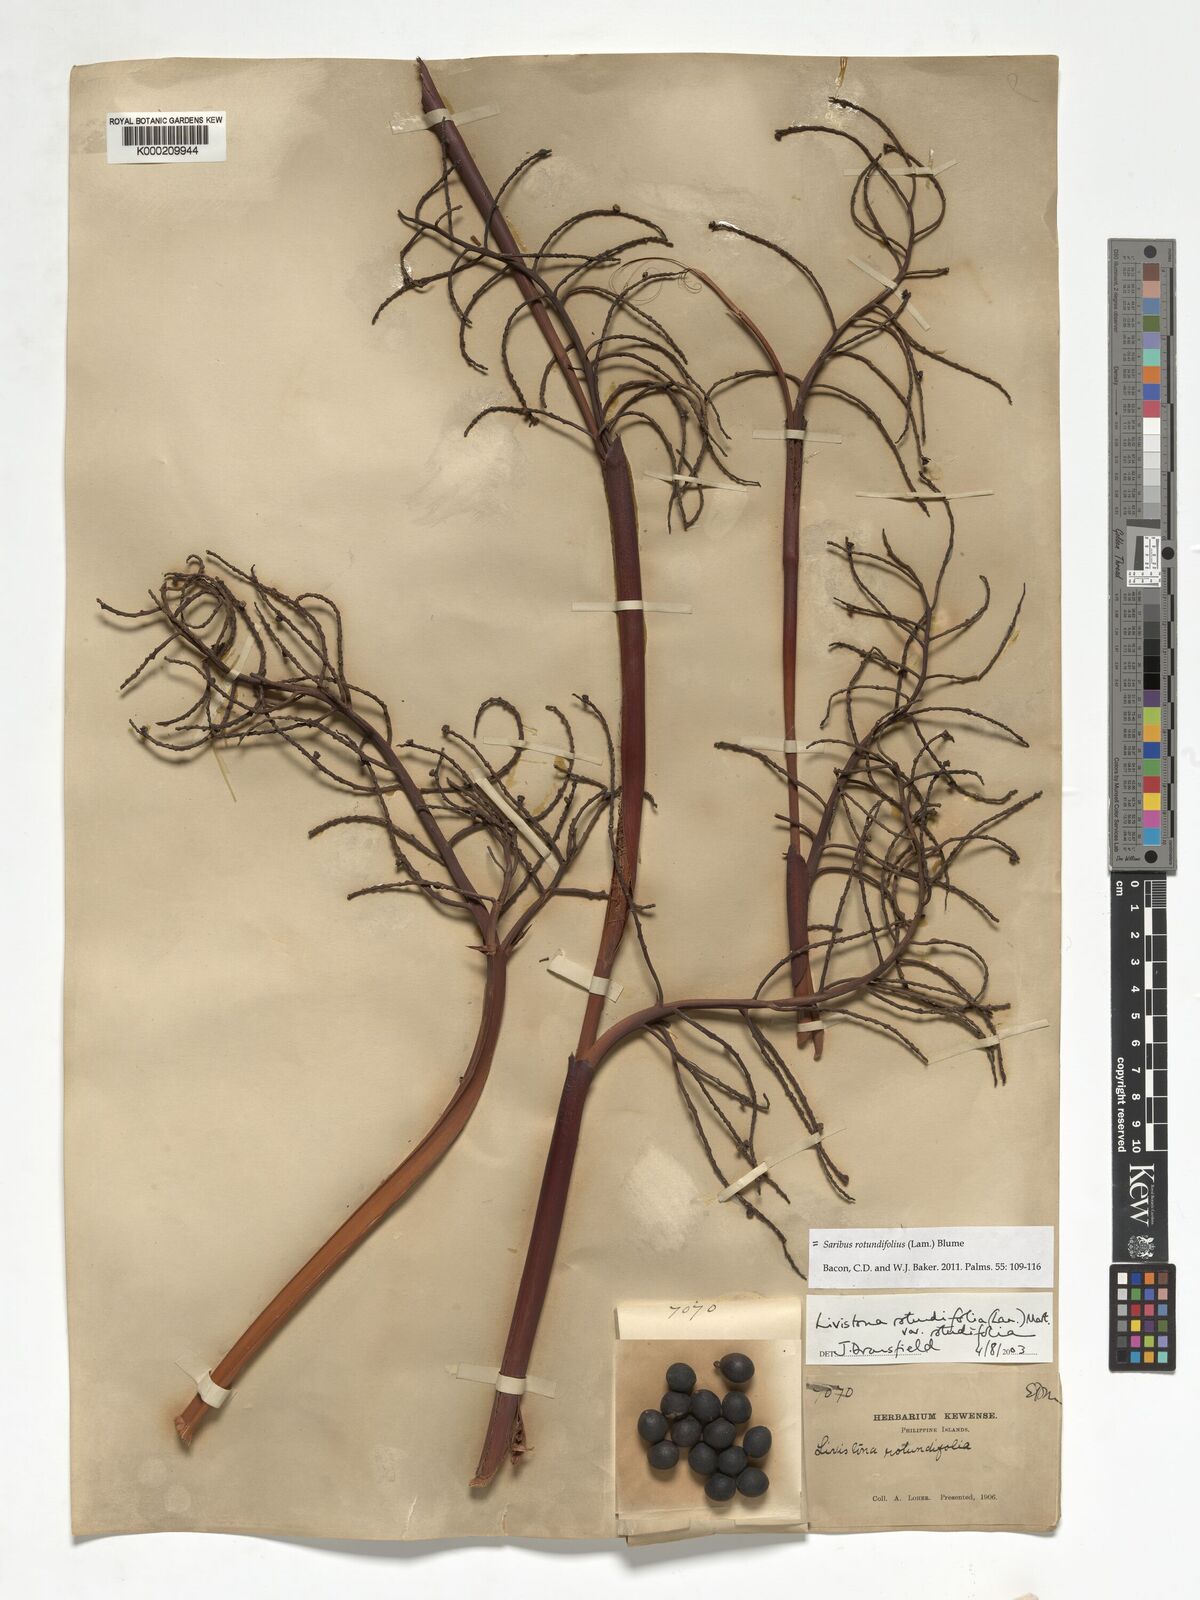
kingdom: Plantae
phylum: Tracheophyta
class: Liliopsida
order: Arecales
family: Arecaceae
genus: Saribus
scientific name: Saribus rotundifolius
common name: Palm
